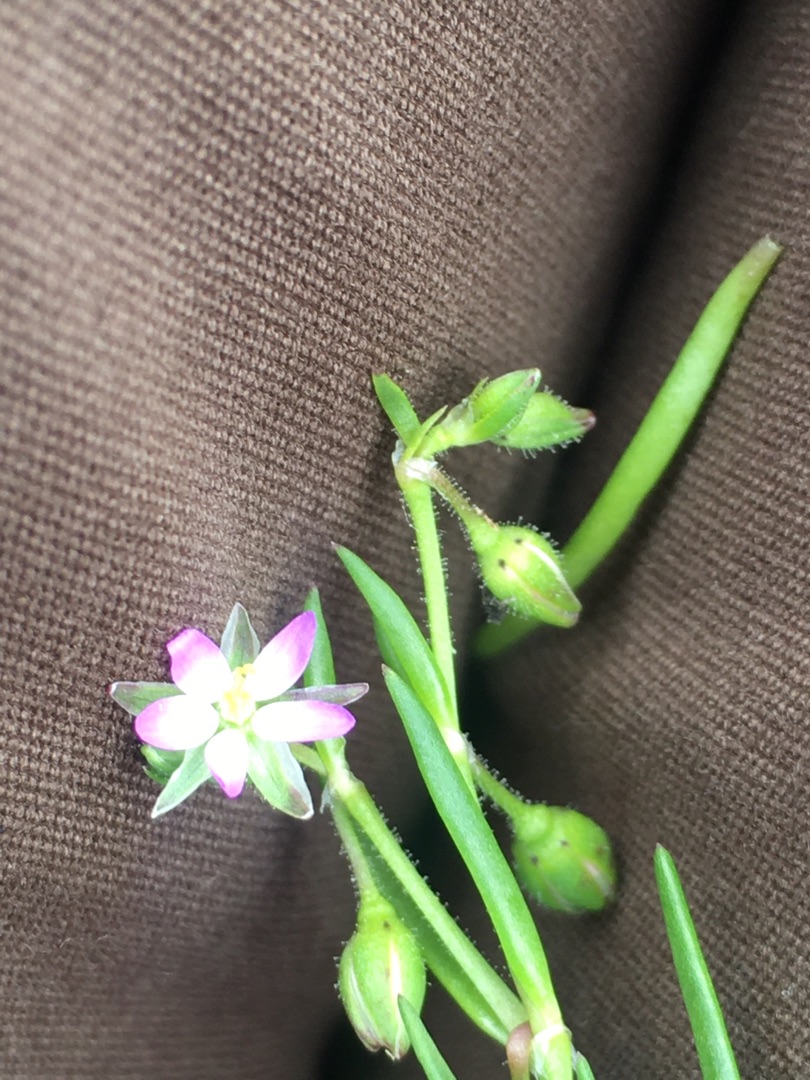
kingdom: Plantae
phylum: Tracheophyta
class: Magnoliopsida
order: Caryophyllales
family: Caryophyllaceae
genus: Spergularia
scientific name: Spergularia marina
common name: Kødet hindeknæ
